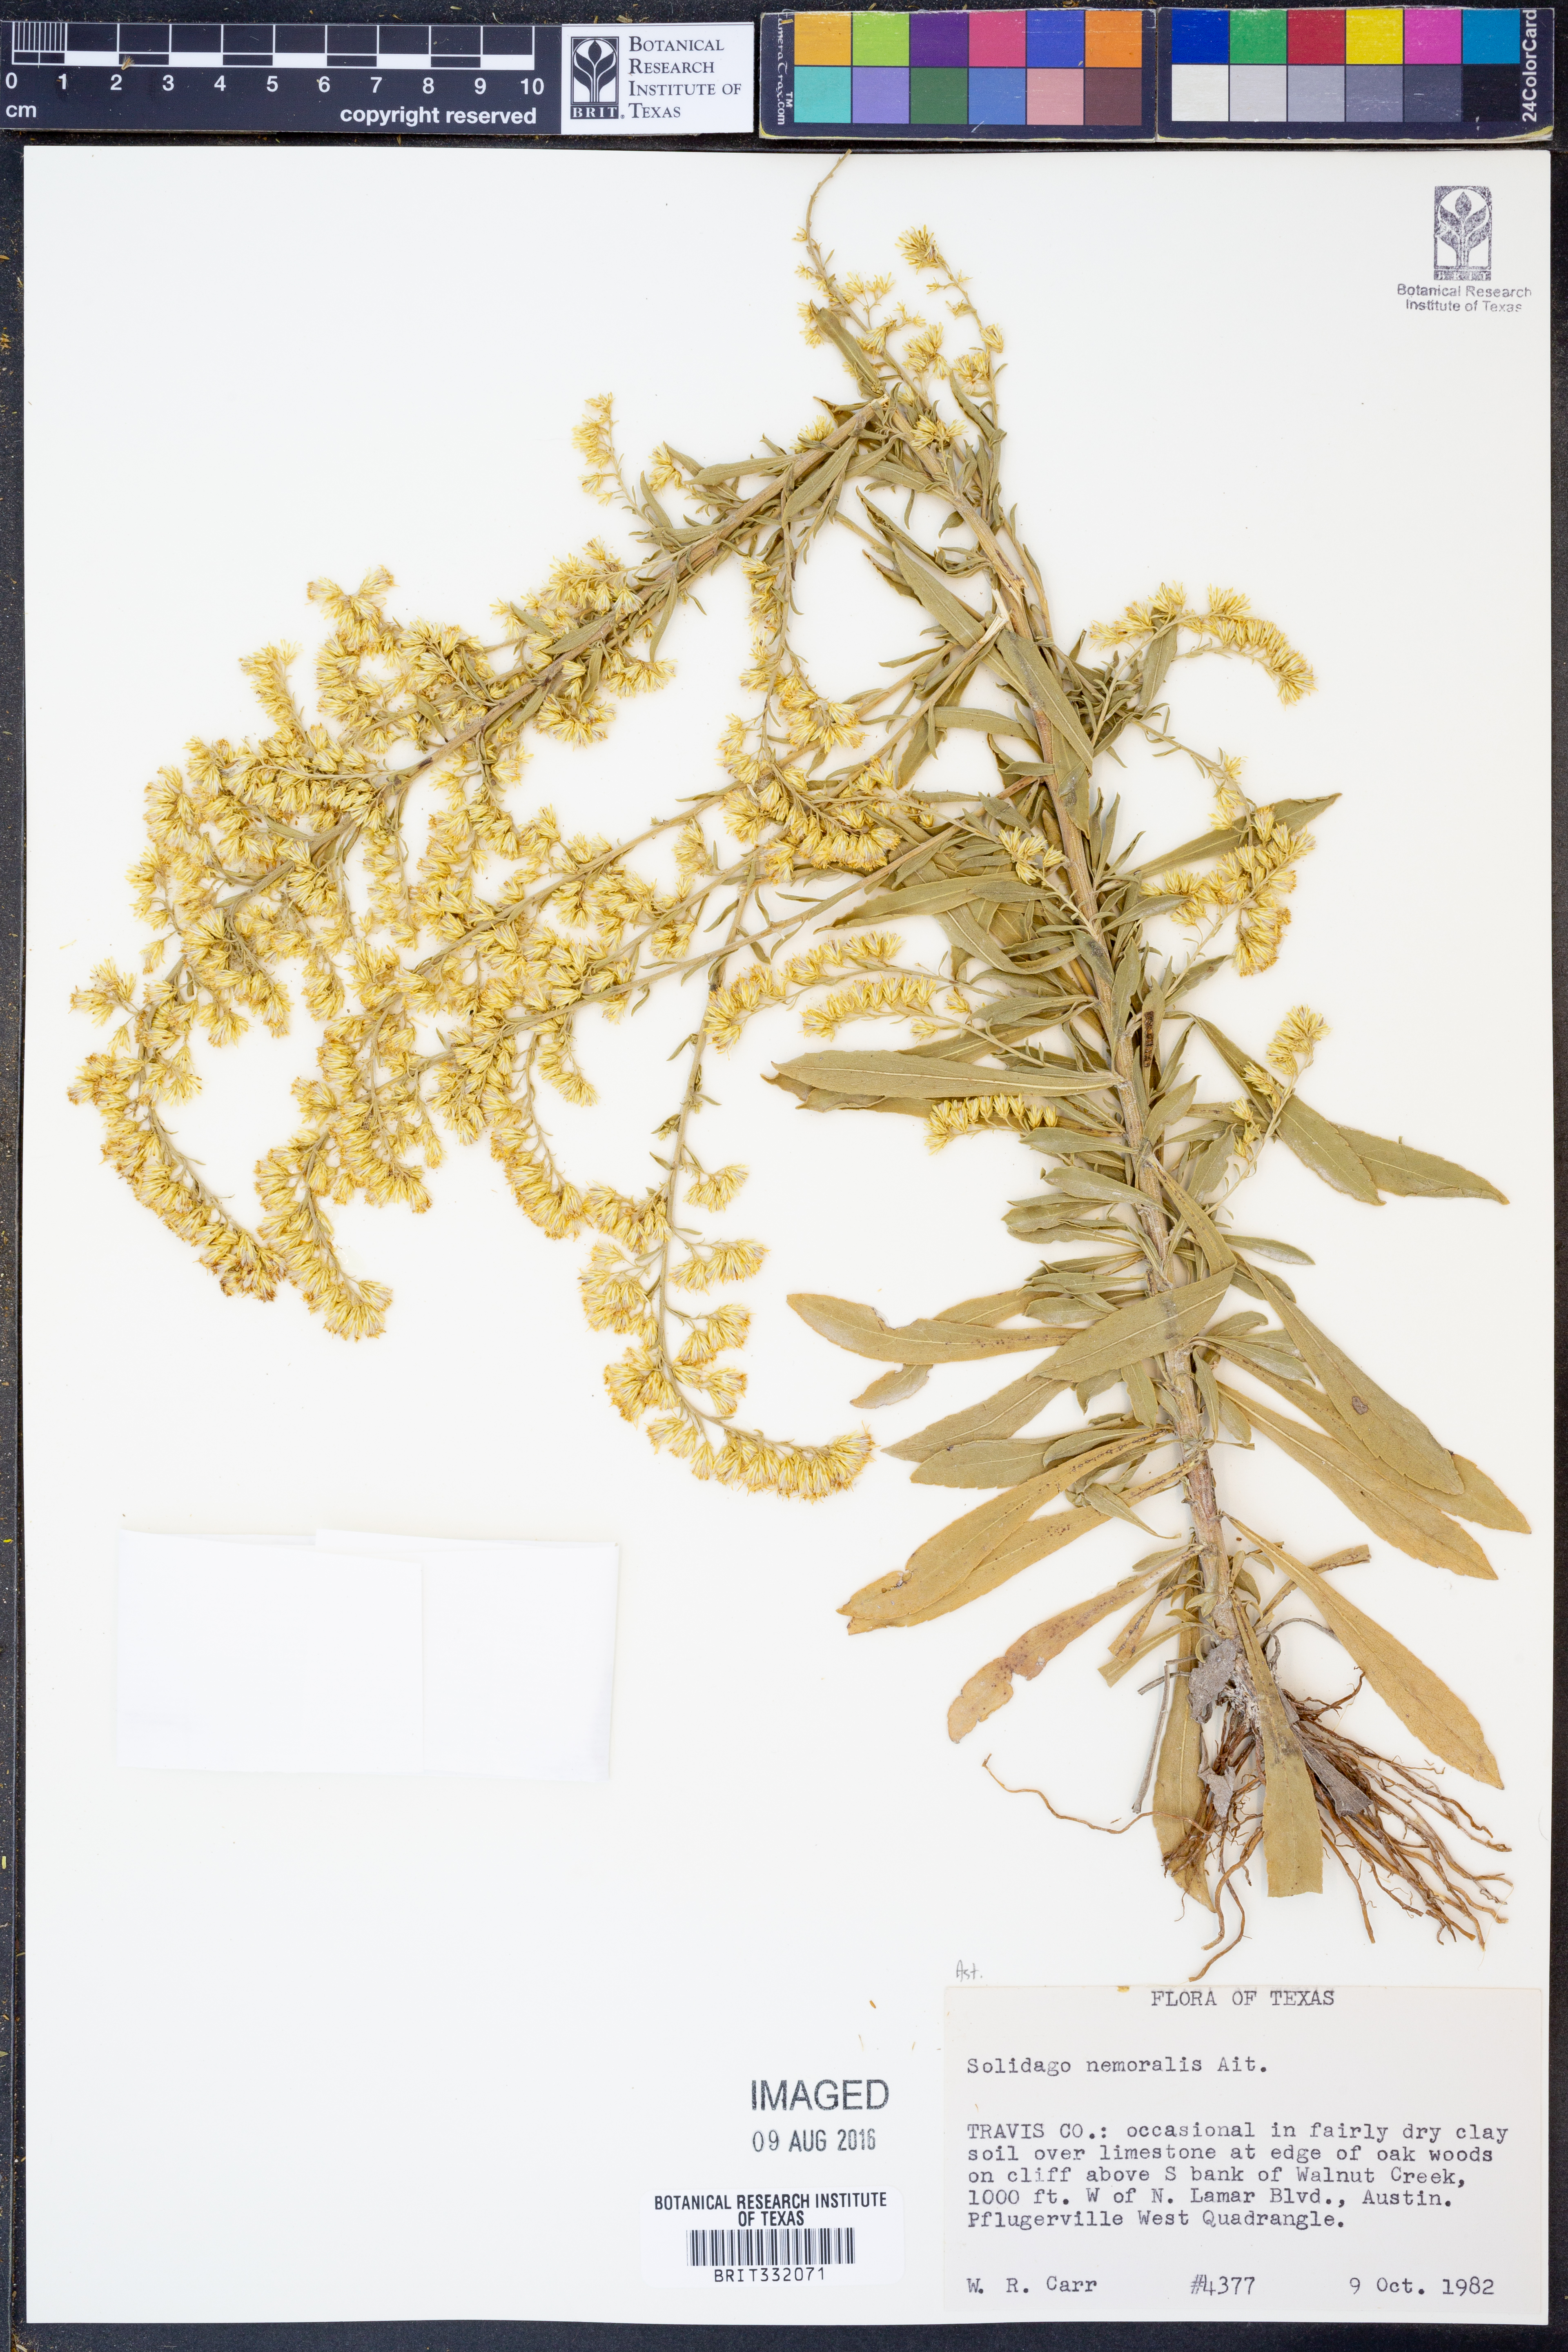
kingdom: Plantae
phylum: Tracheophyta
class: Magnoliopsida
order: Asterales
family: Asteraceae
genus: Solidago
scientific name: Solidago nemoralis
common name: Grey goldenrod
